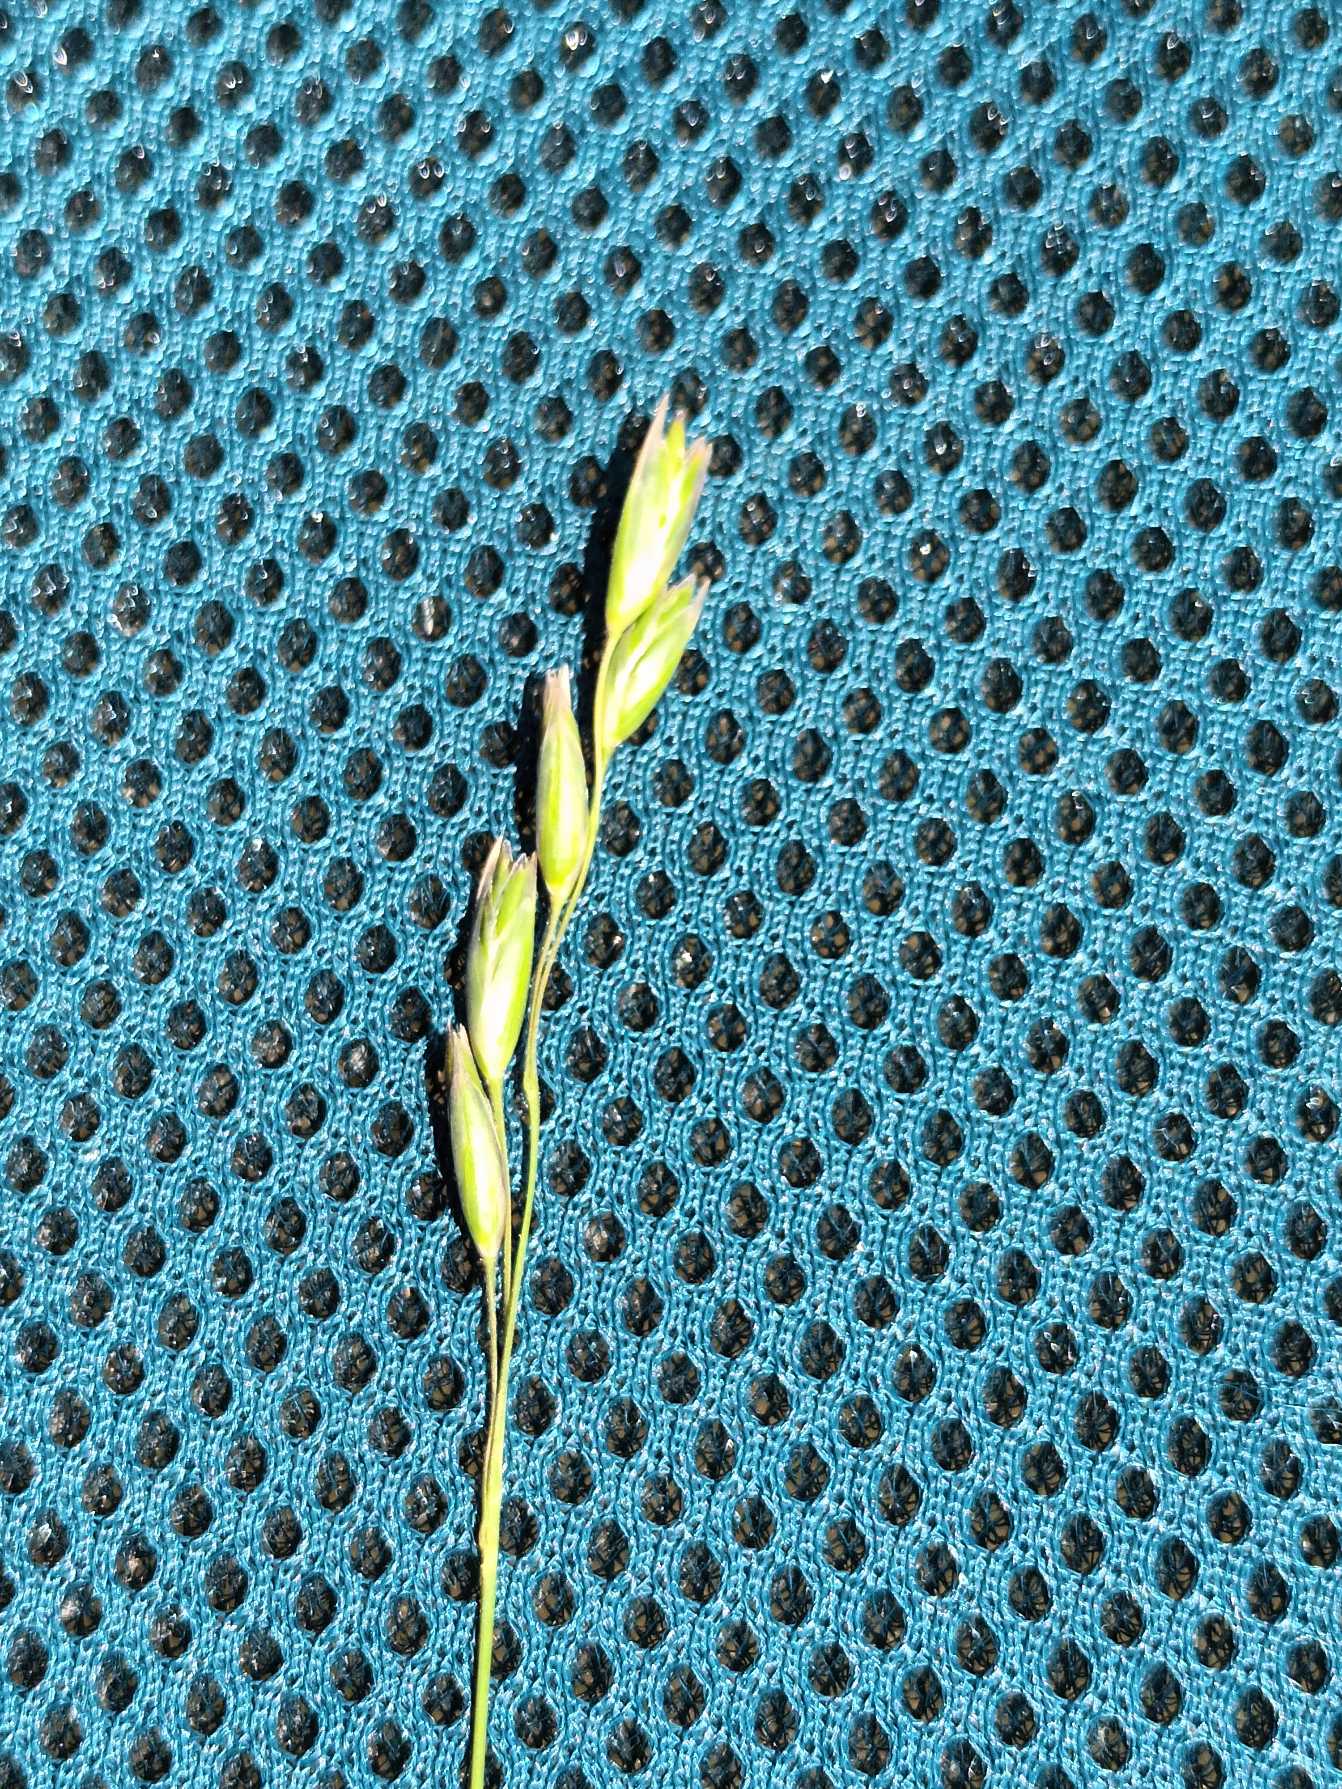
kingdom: Plantae
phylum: Tracheophyta
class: Liliopsida
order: Poales
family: Poaceae
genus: Danthonia
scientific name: Danthonia decumbens
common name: Tandbælg
